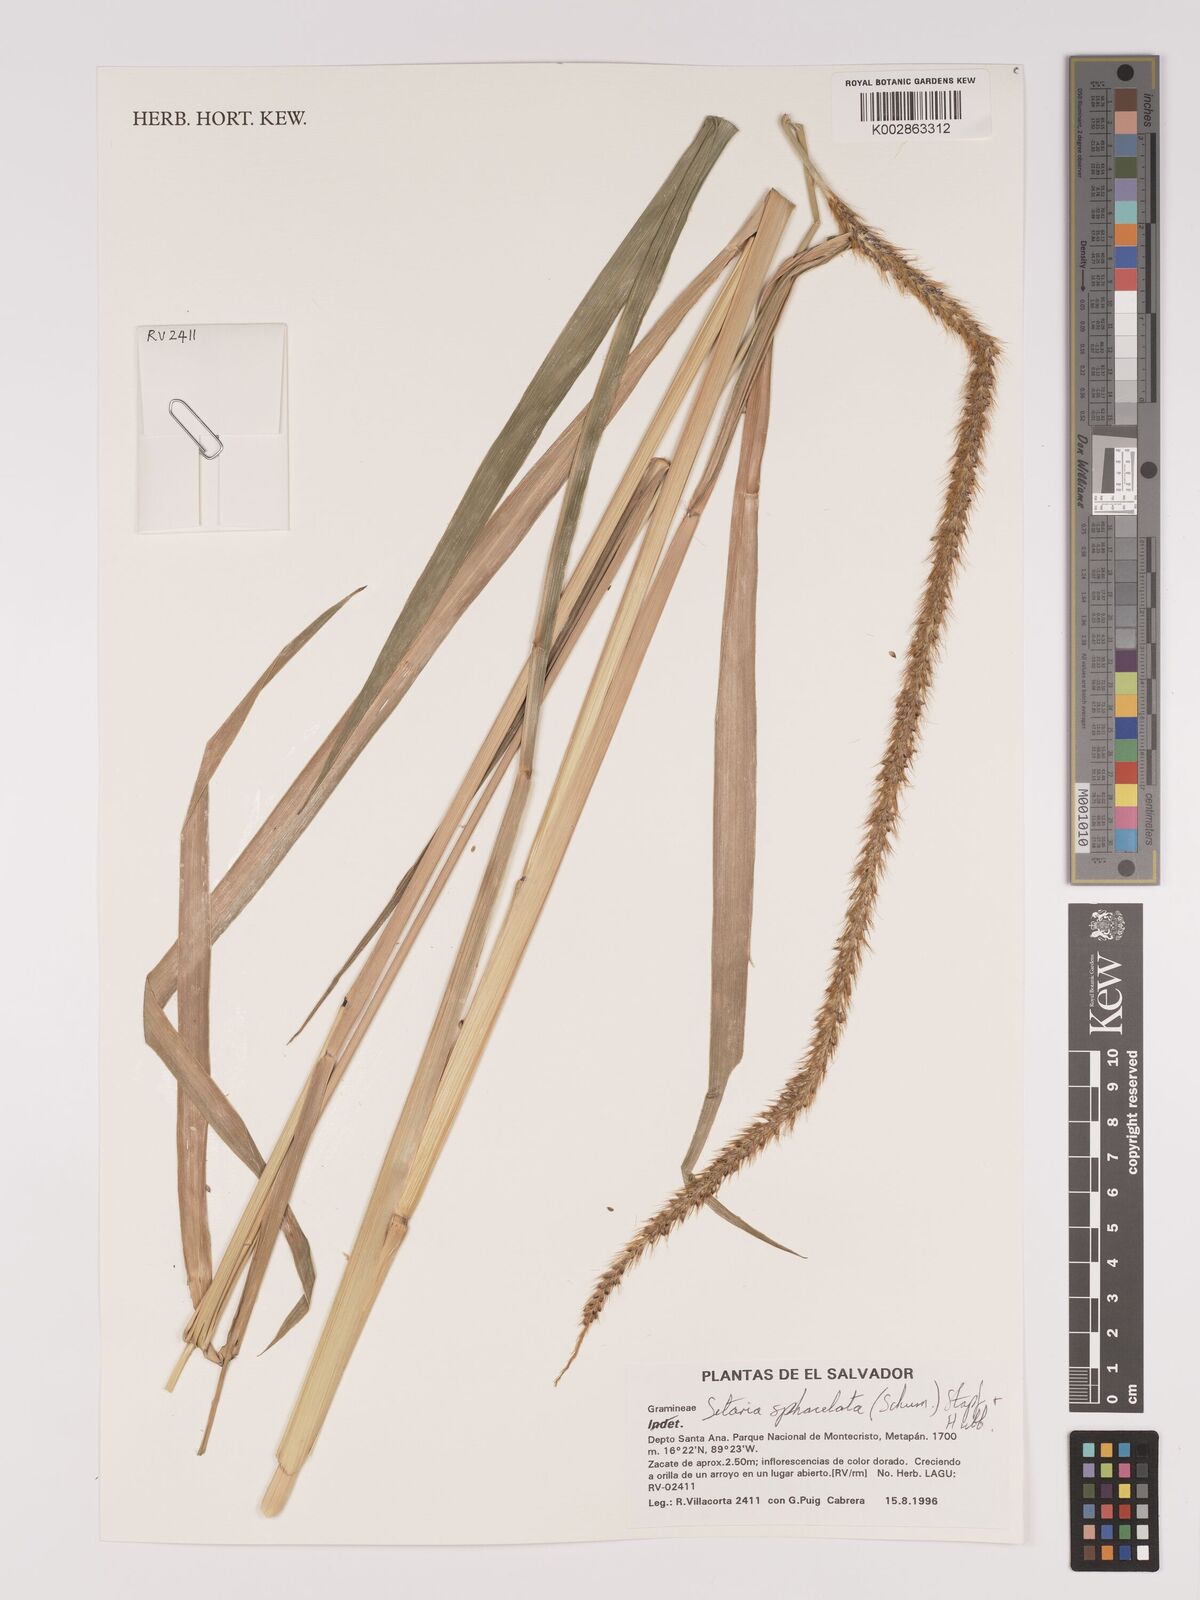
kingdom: Plantae
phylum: Tracheophyta
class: Liliopsida
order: Poales
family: Poaceae
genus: Setaria
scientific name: Setaria sphacelata
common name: African bristlegrass
